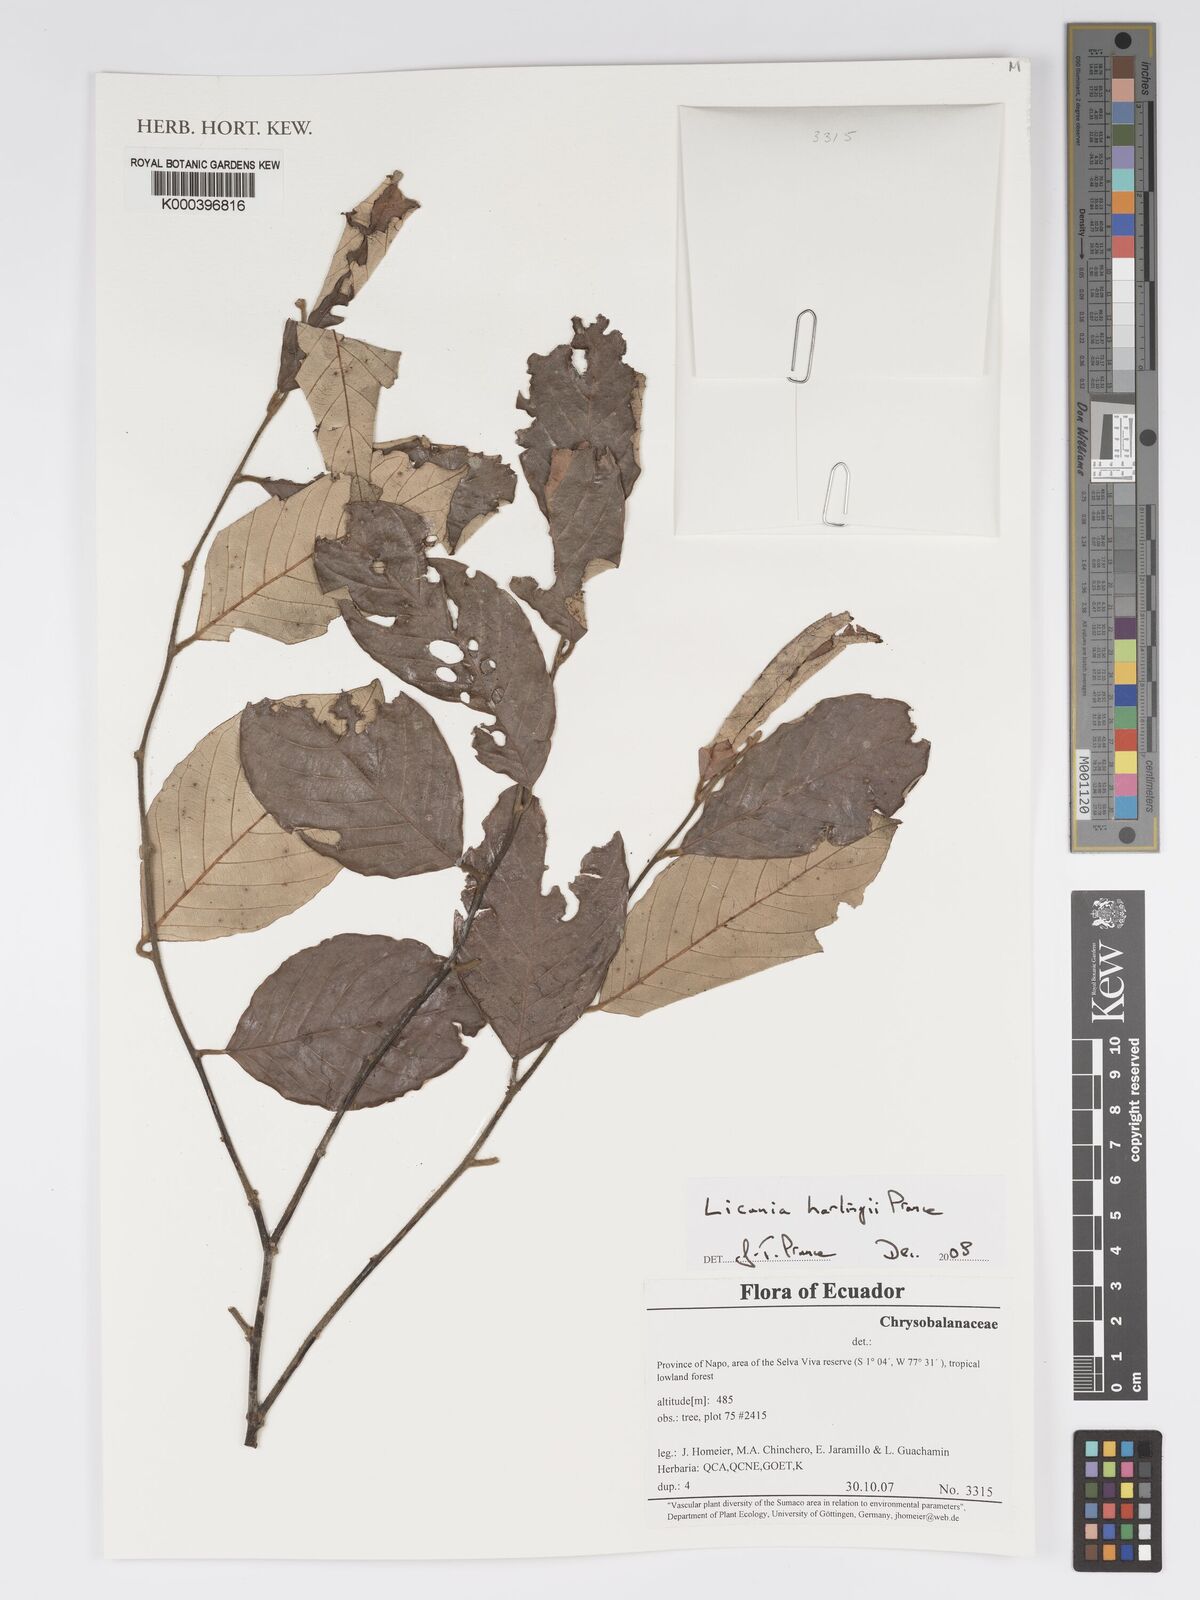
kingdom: Plantae
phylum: Tracheophyta
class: Magnoliopsida
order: Malpighiales
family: Chrysobalanaceae
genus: Licania
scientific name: Licania harlingii
